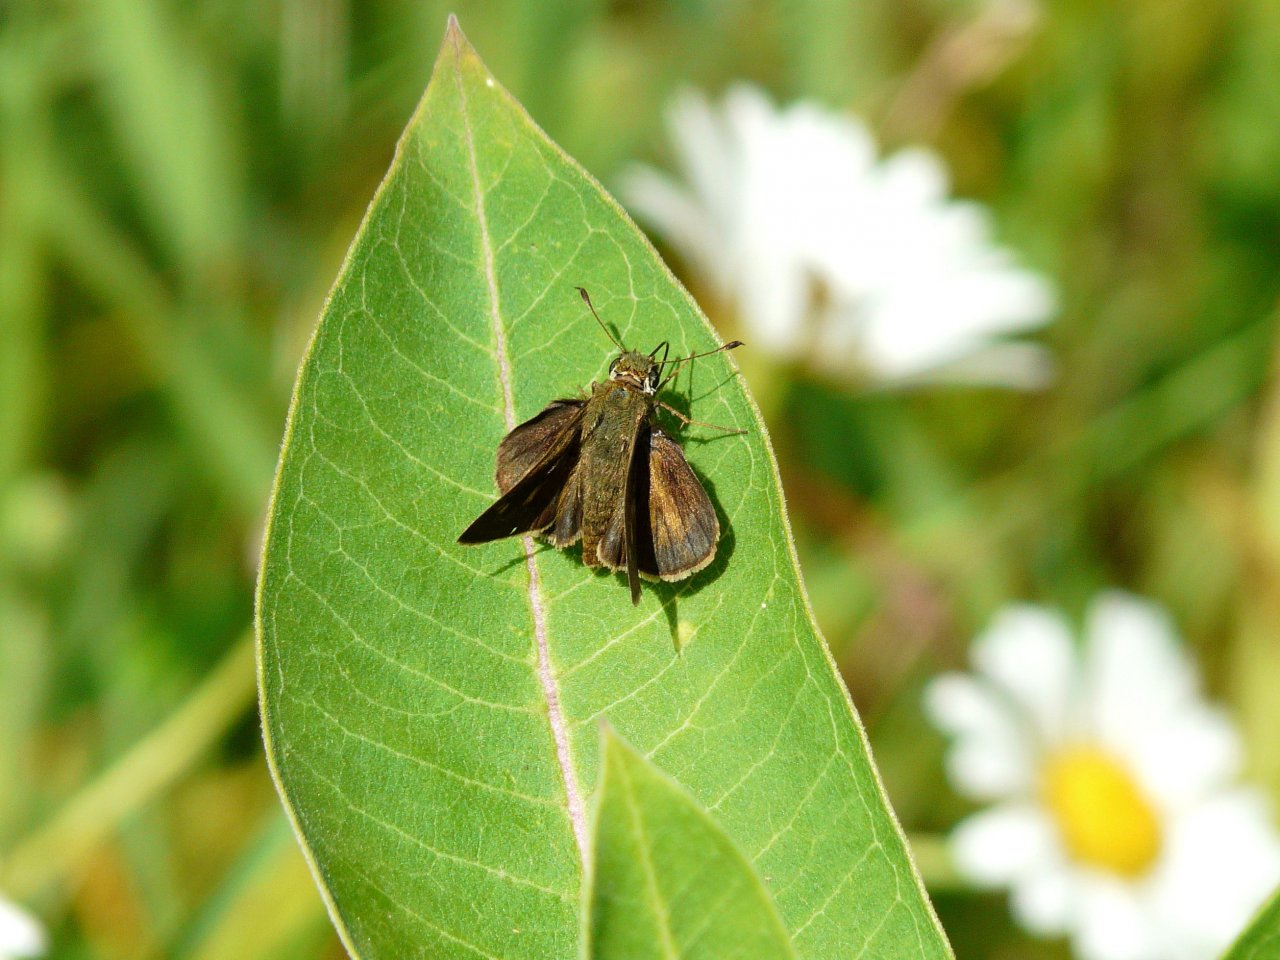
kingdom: Animalia
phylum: Arthropoda
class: Insecta
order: Lepidoptera
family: Hesperiidae
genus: Polites
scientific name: Polites egeremet
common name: Northern Broken-Dash
